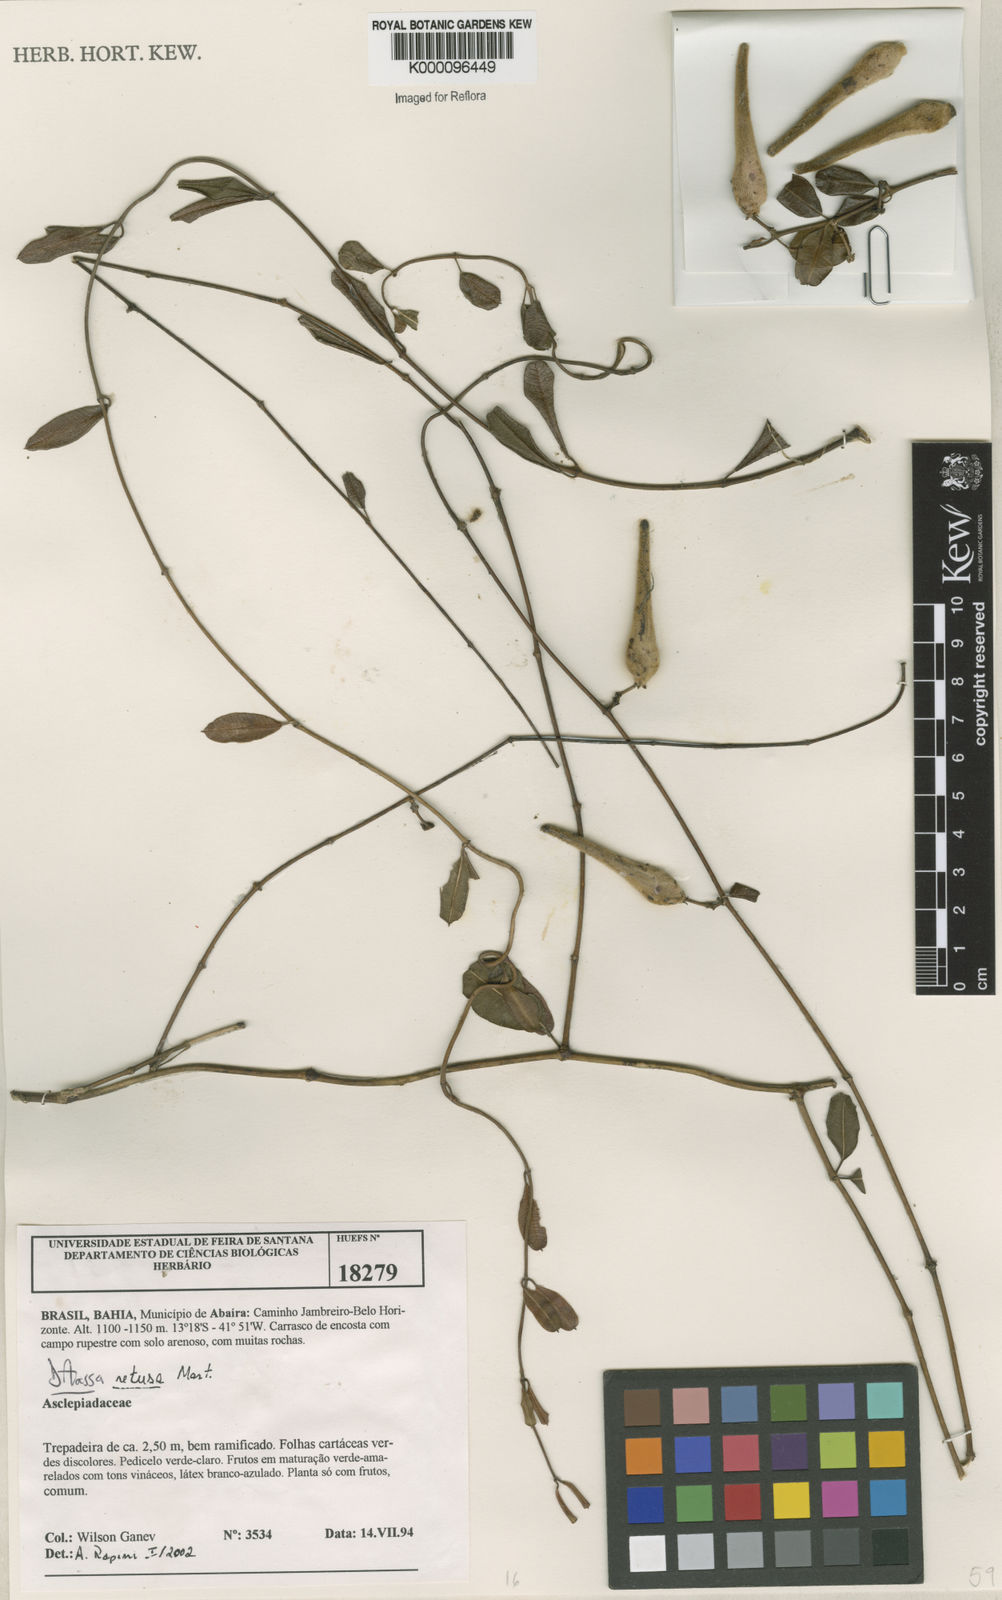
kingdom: Plantae
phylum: Tracheophyta
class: Magnoliopsida
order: Gentianales
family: Apocynaceae
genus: Ditassa
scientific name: Ditassa retusa
